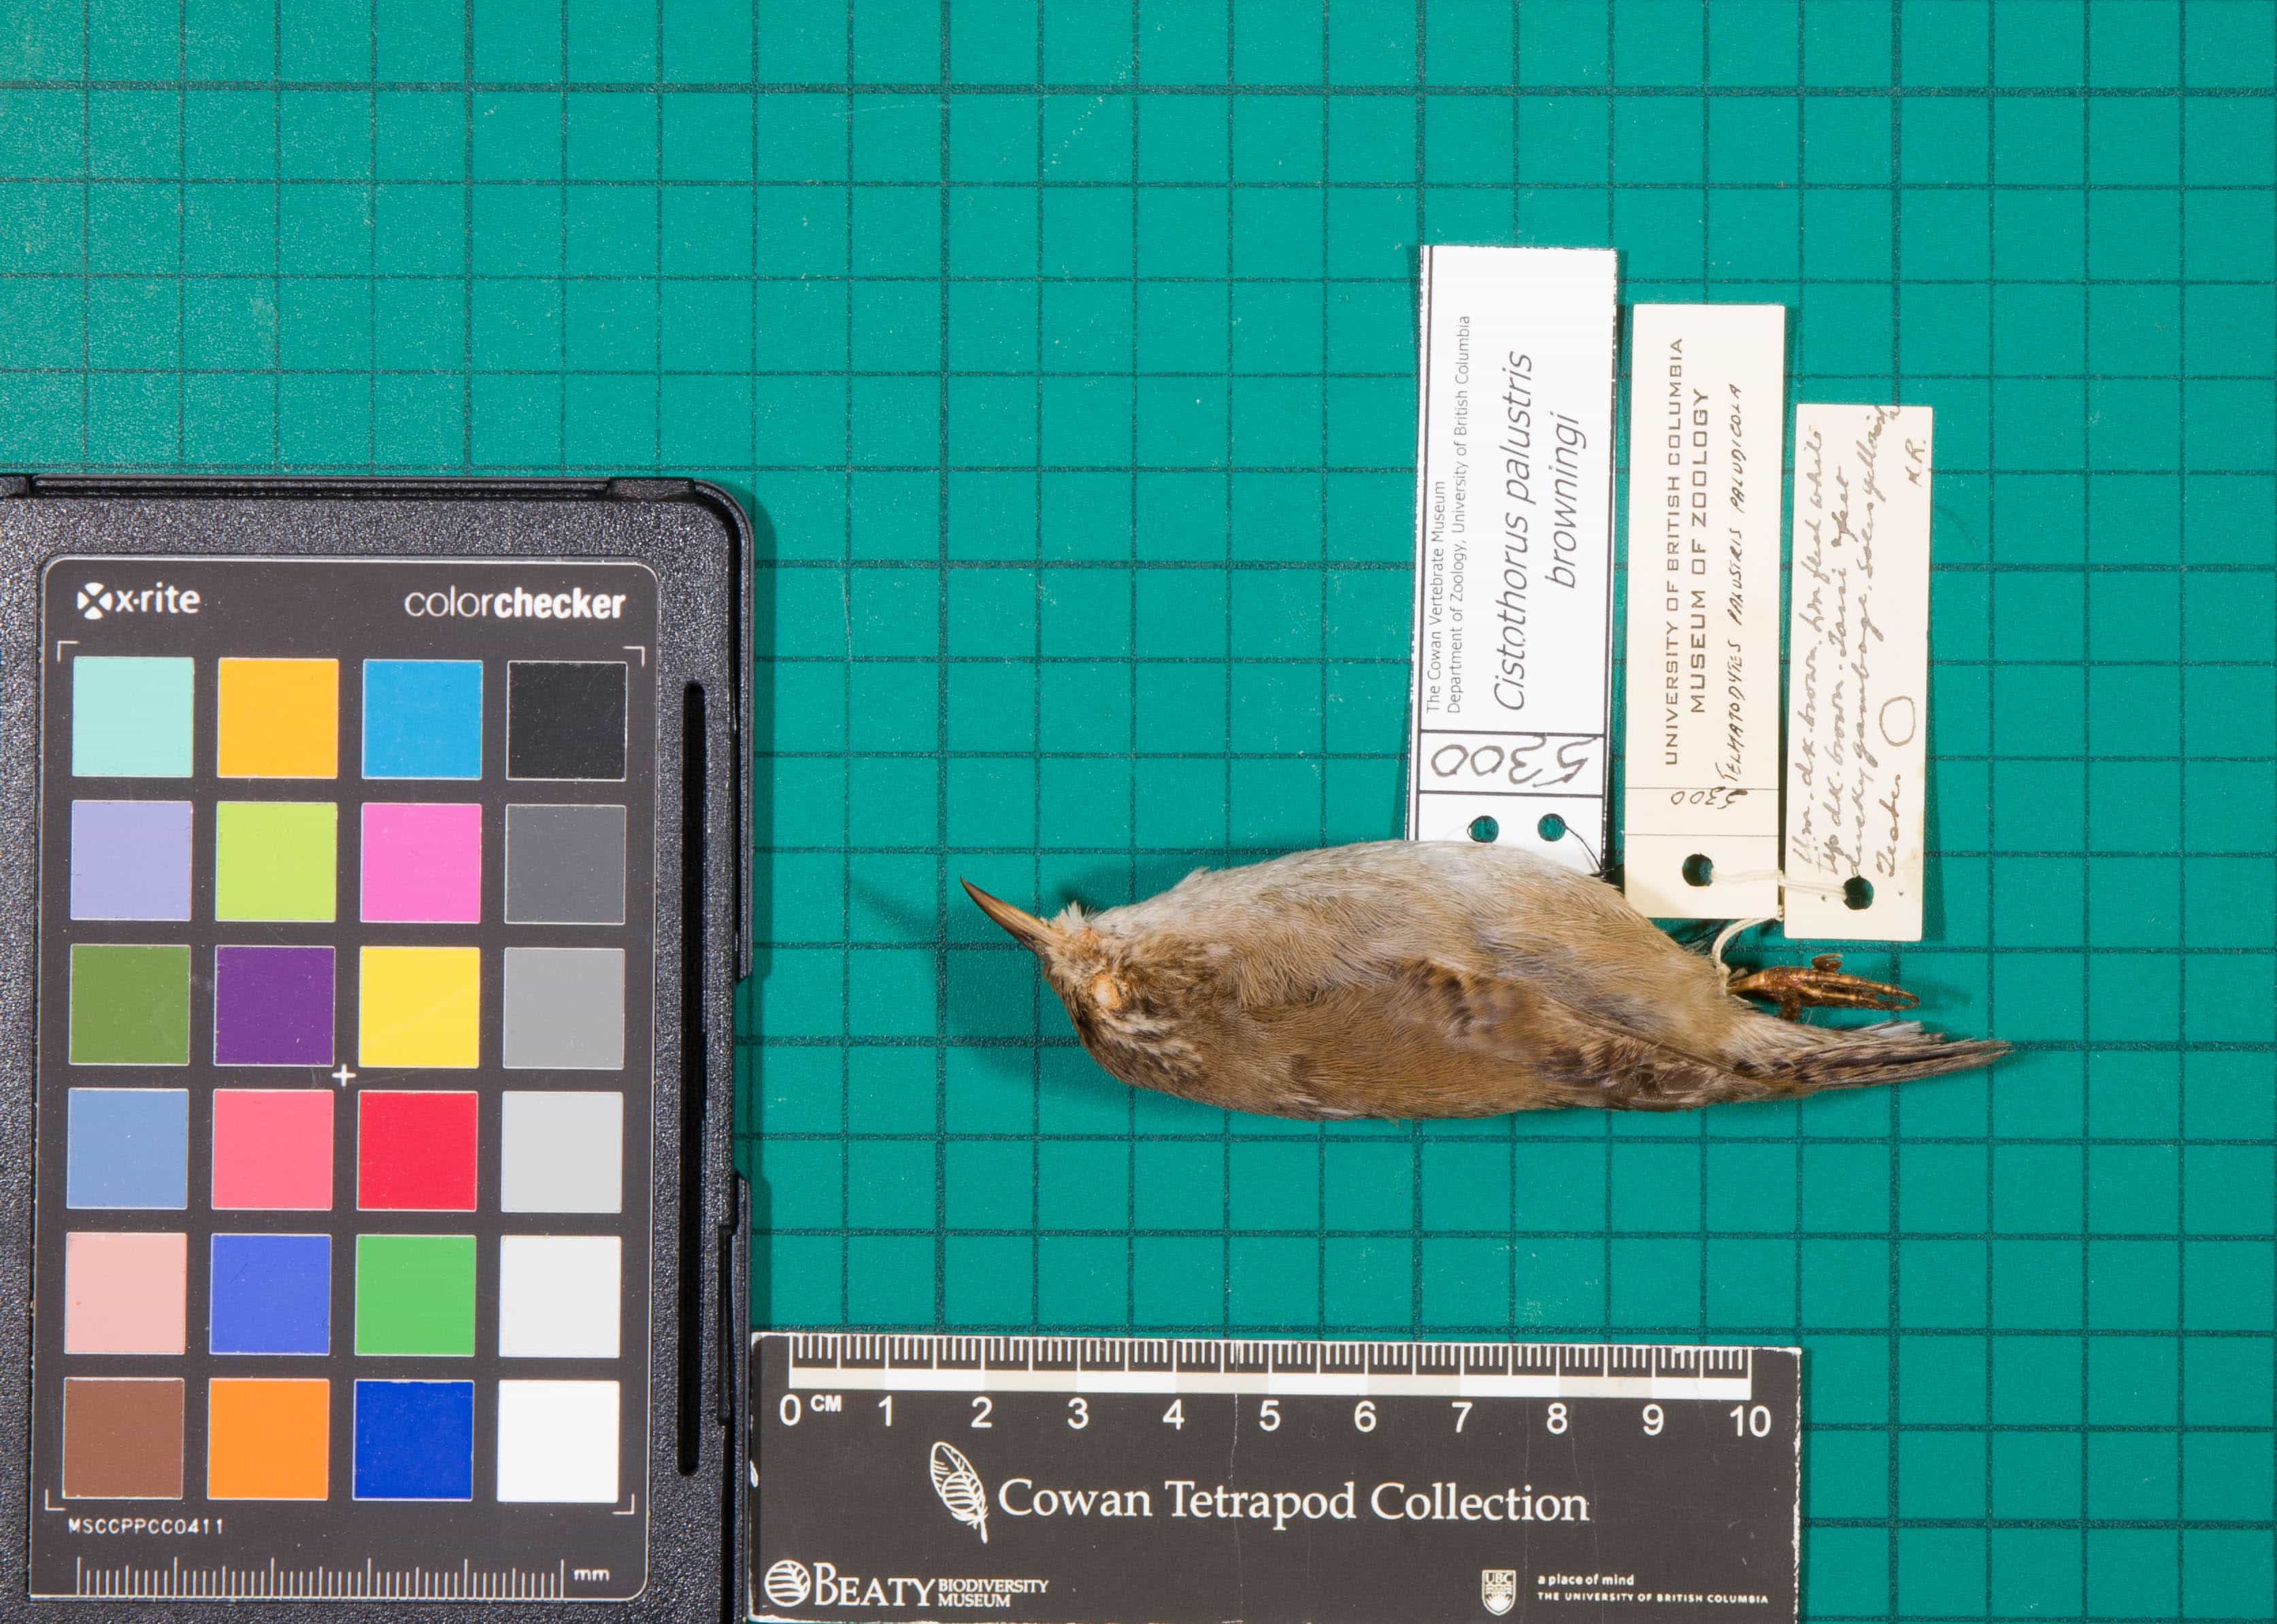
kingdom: Animalia
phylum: Chordata
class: Aves
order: Passeriformes
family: Troglodytidae
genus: Cistothorus
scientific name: Cistothorus palustris
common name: Marsh Wren
